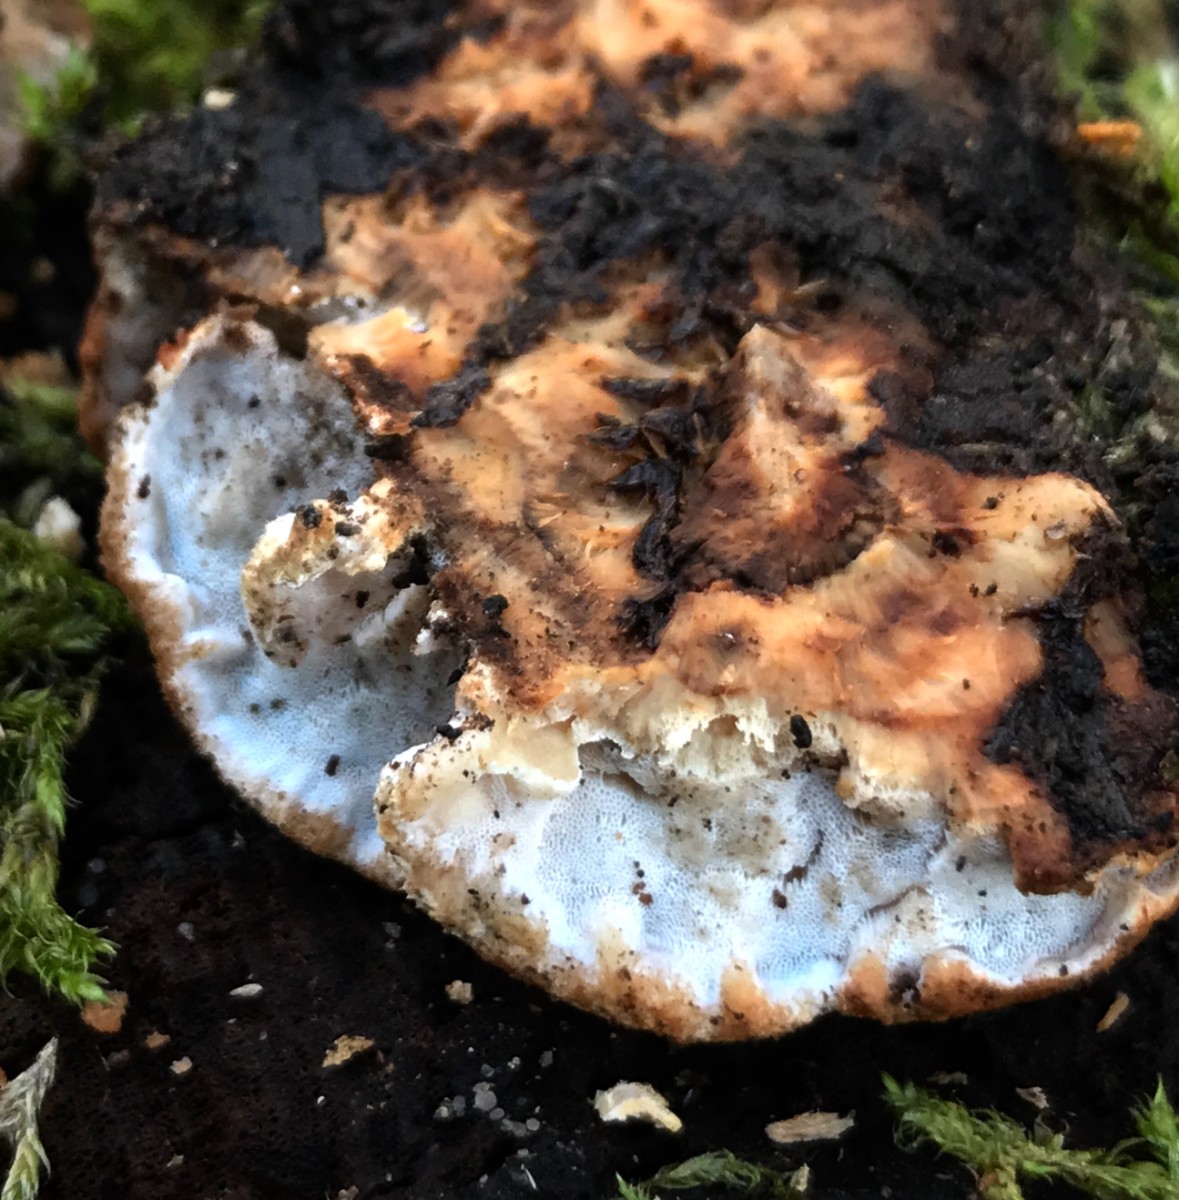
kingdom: Fungi
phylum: Basidiomycota
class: Agaricomycetes
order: Polyporales
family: Incrustoporiaceae
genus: Skeletocutis
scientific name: Skeletocutis nemoralis
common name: stor krystalporesvamp
